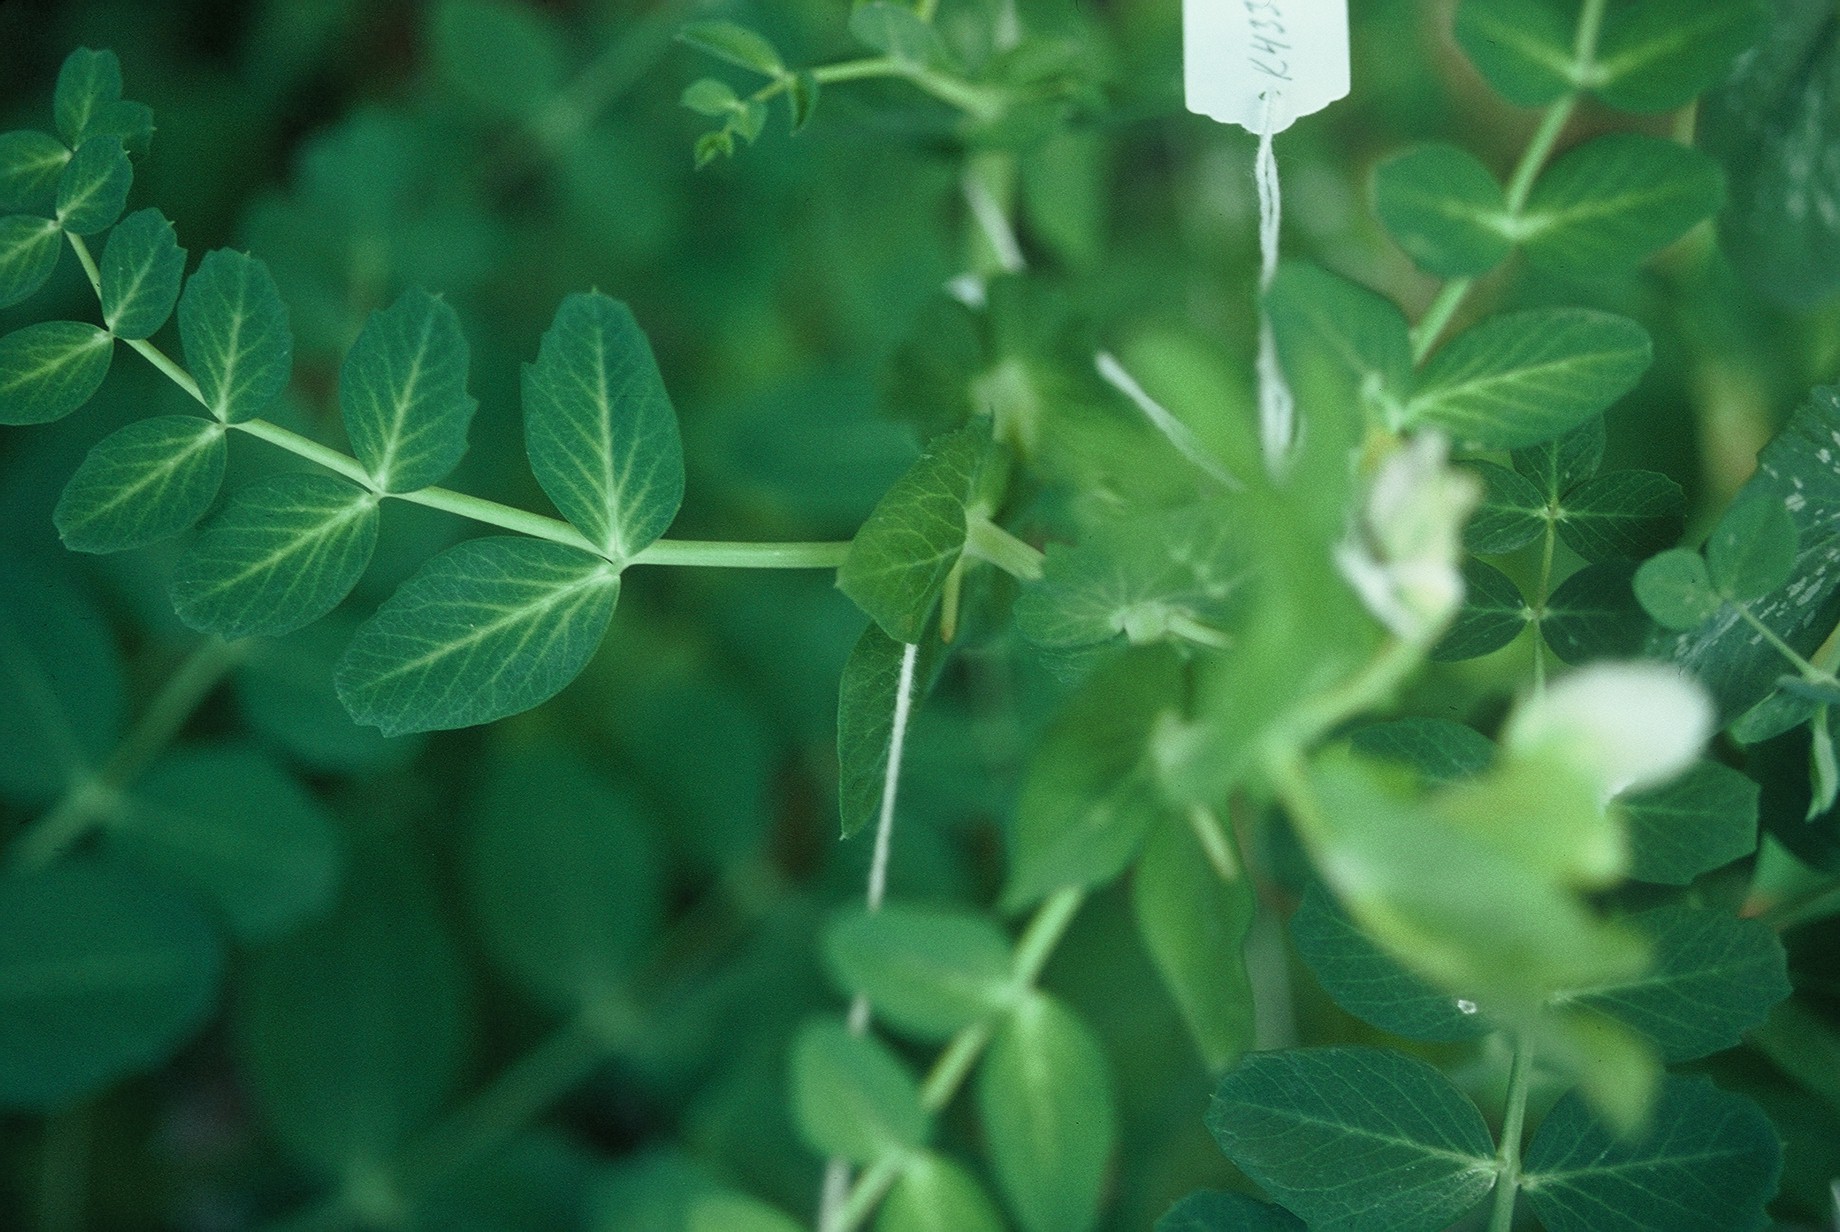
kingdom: Plantae
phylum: Tracheophyta
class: Magnoliopsida
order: Fabales
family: Fabaceae
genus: Lathyrus
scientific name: Lathyrus oleraceus
